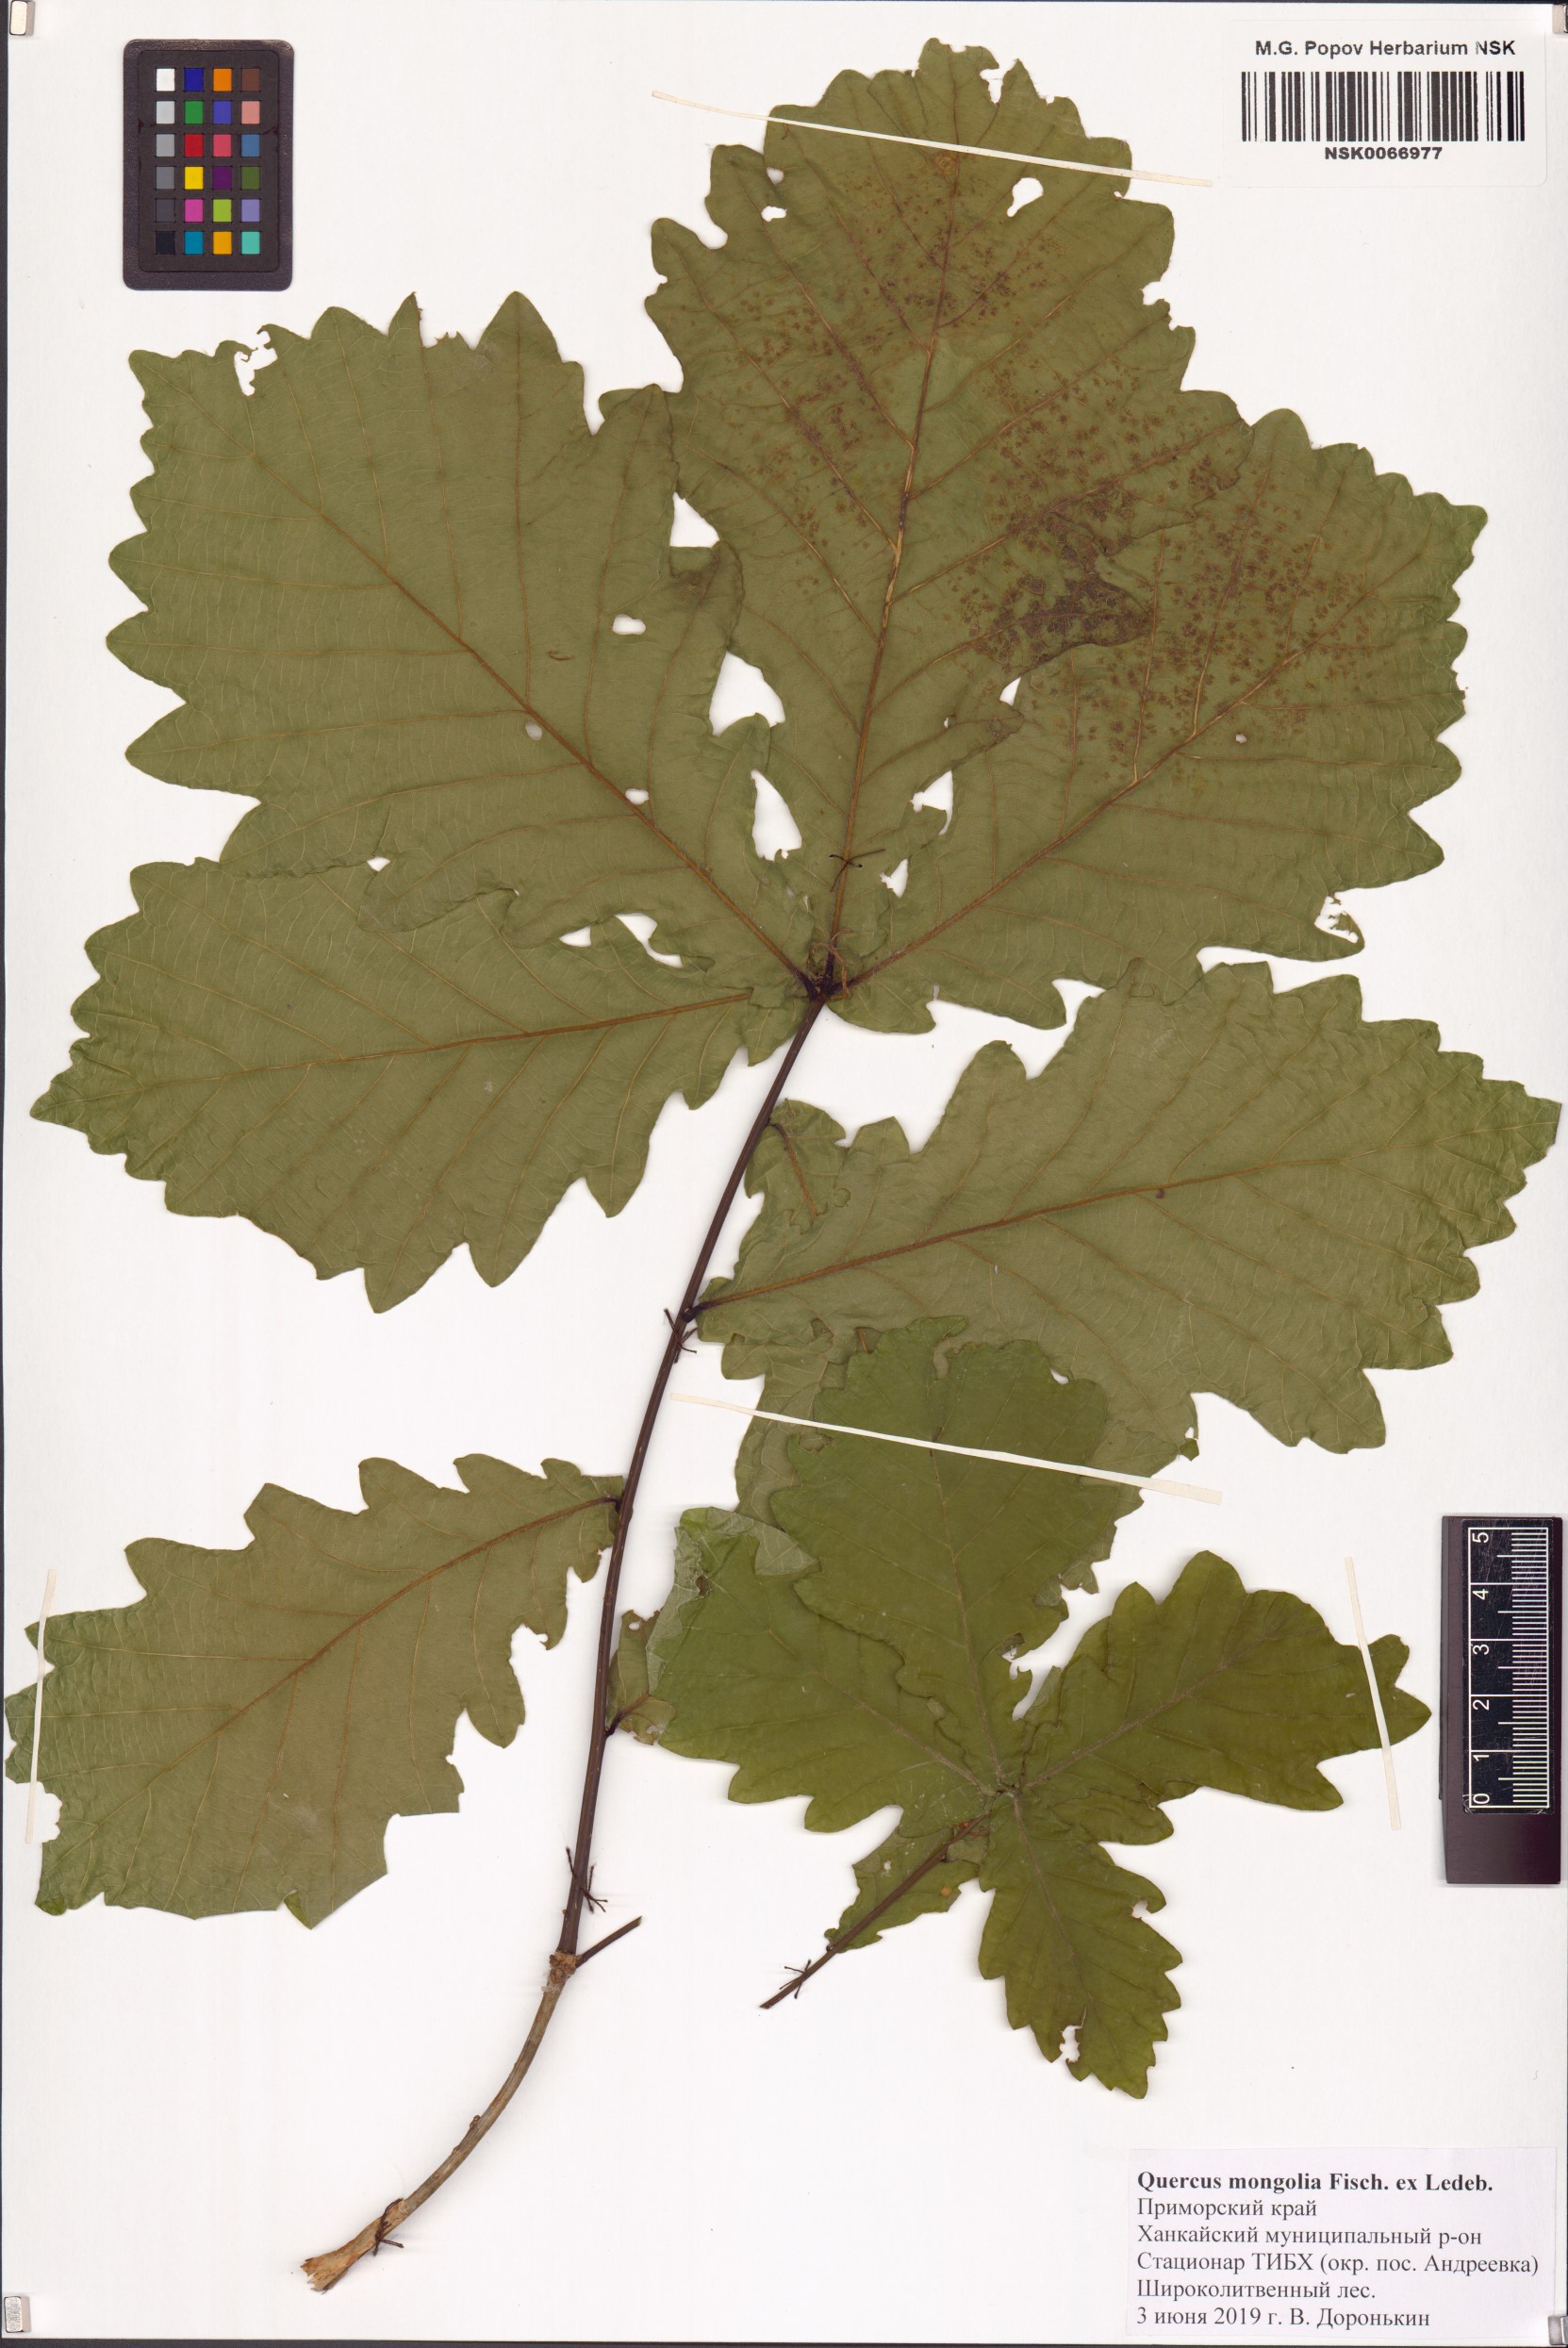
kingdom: Plantae
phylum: Tracheophyta
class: Magnoliopsida
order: Fagales
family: Fagaceae
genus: Quercus
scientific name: Quercus mongolica
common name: Mongolian oak
